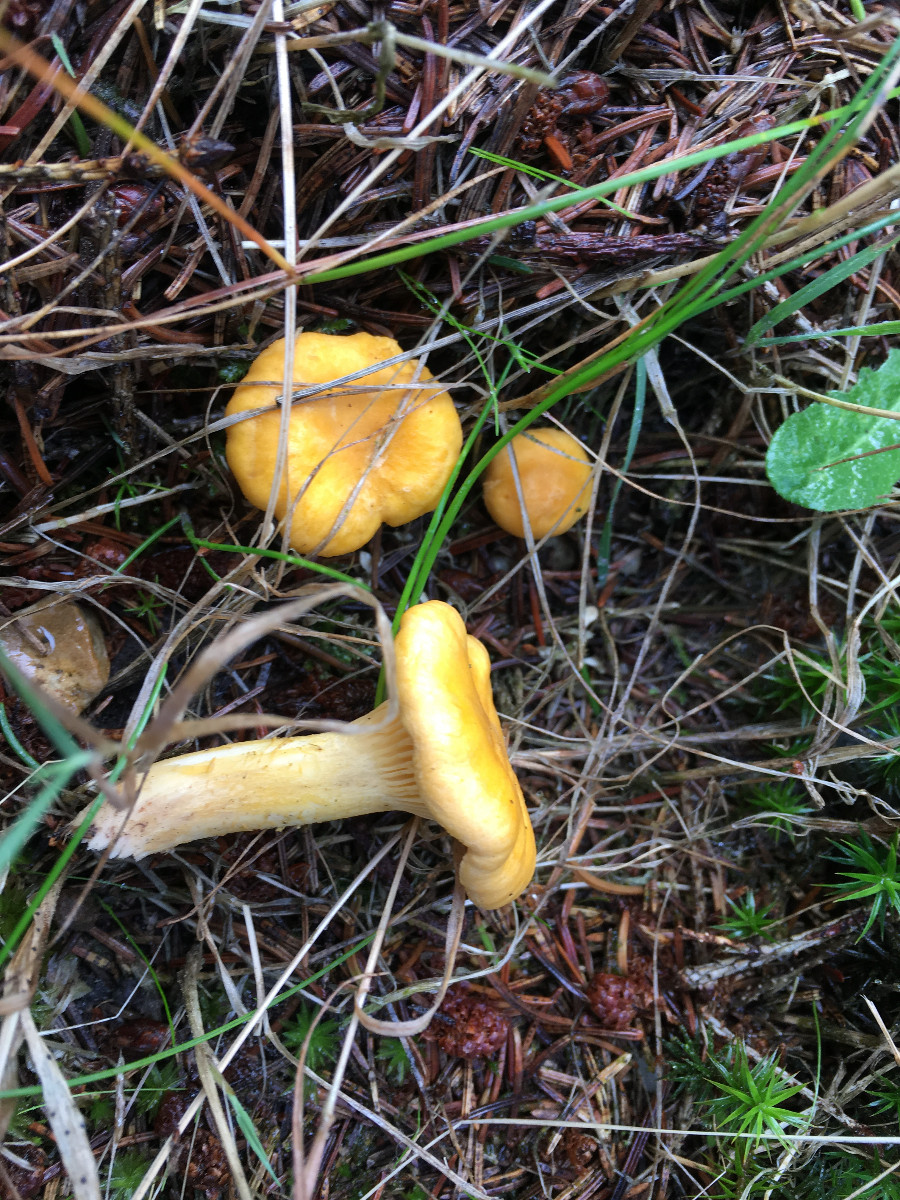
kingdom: Fungi
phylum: Basidiomycota
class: Agaricomycetes
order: Cantharellales
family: Hydnaceae
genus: Cantharellus
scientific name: Cantharellus cibarius
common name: almindelig kantarel
